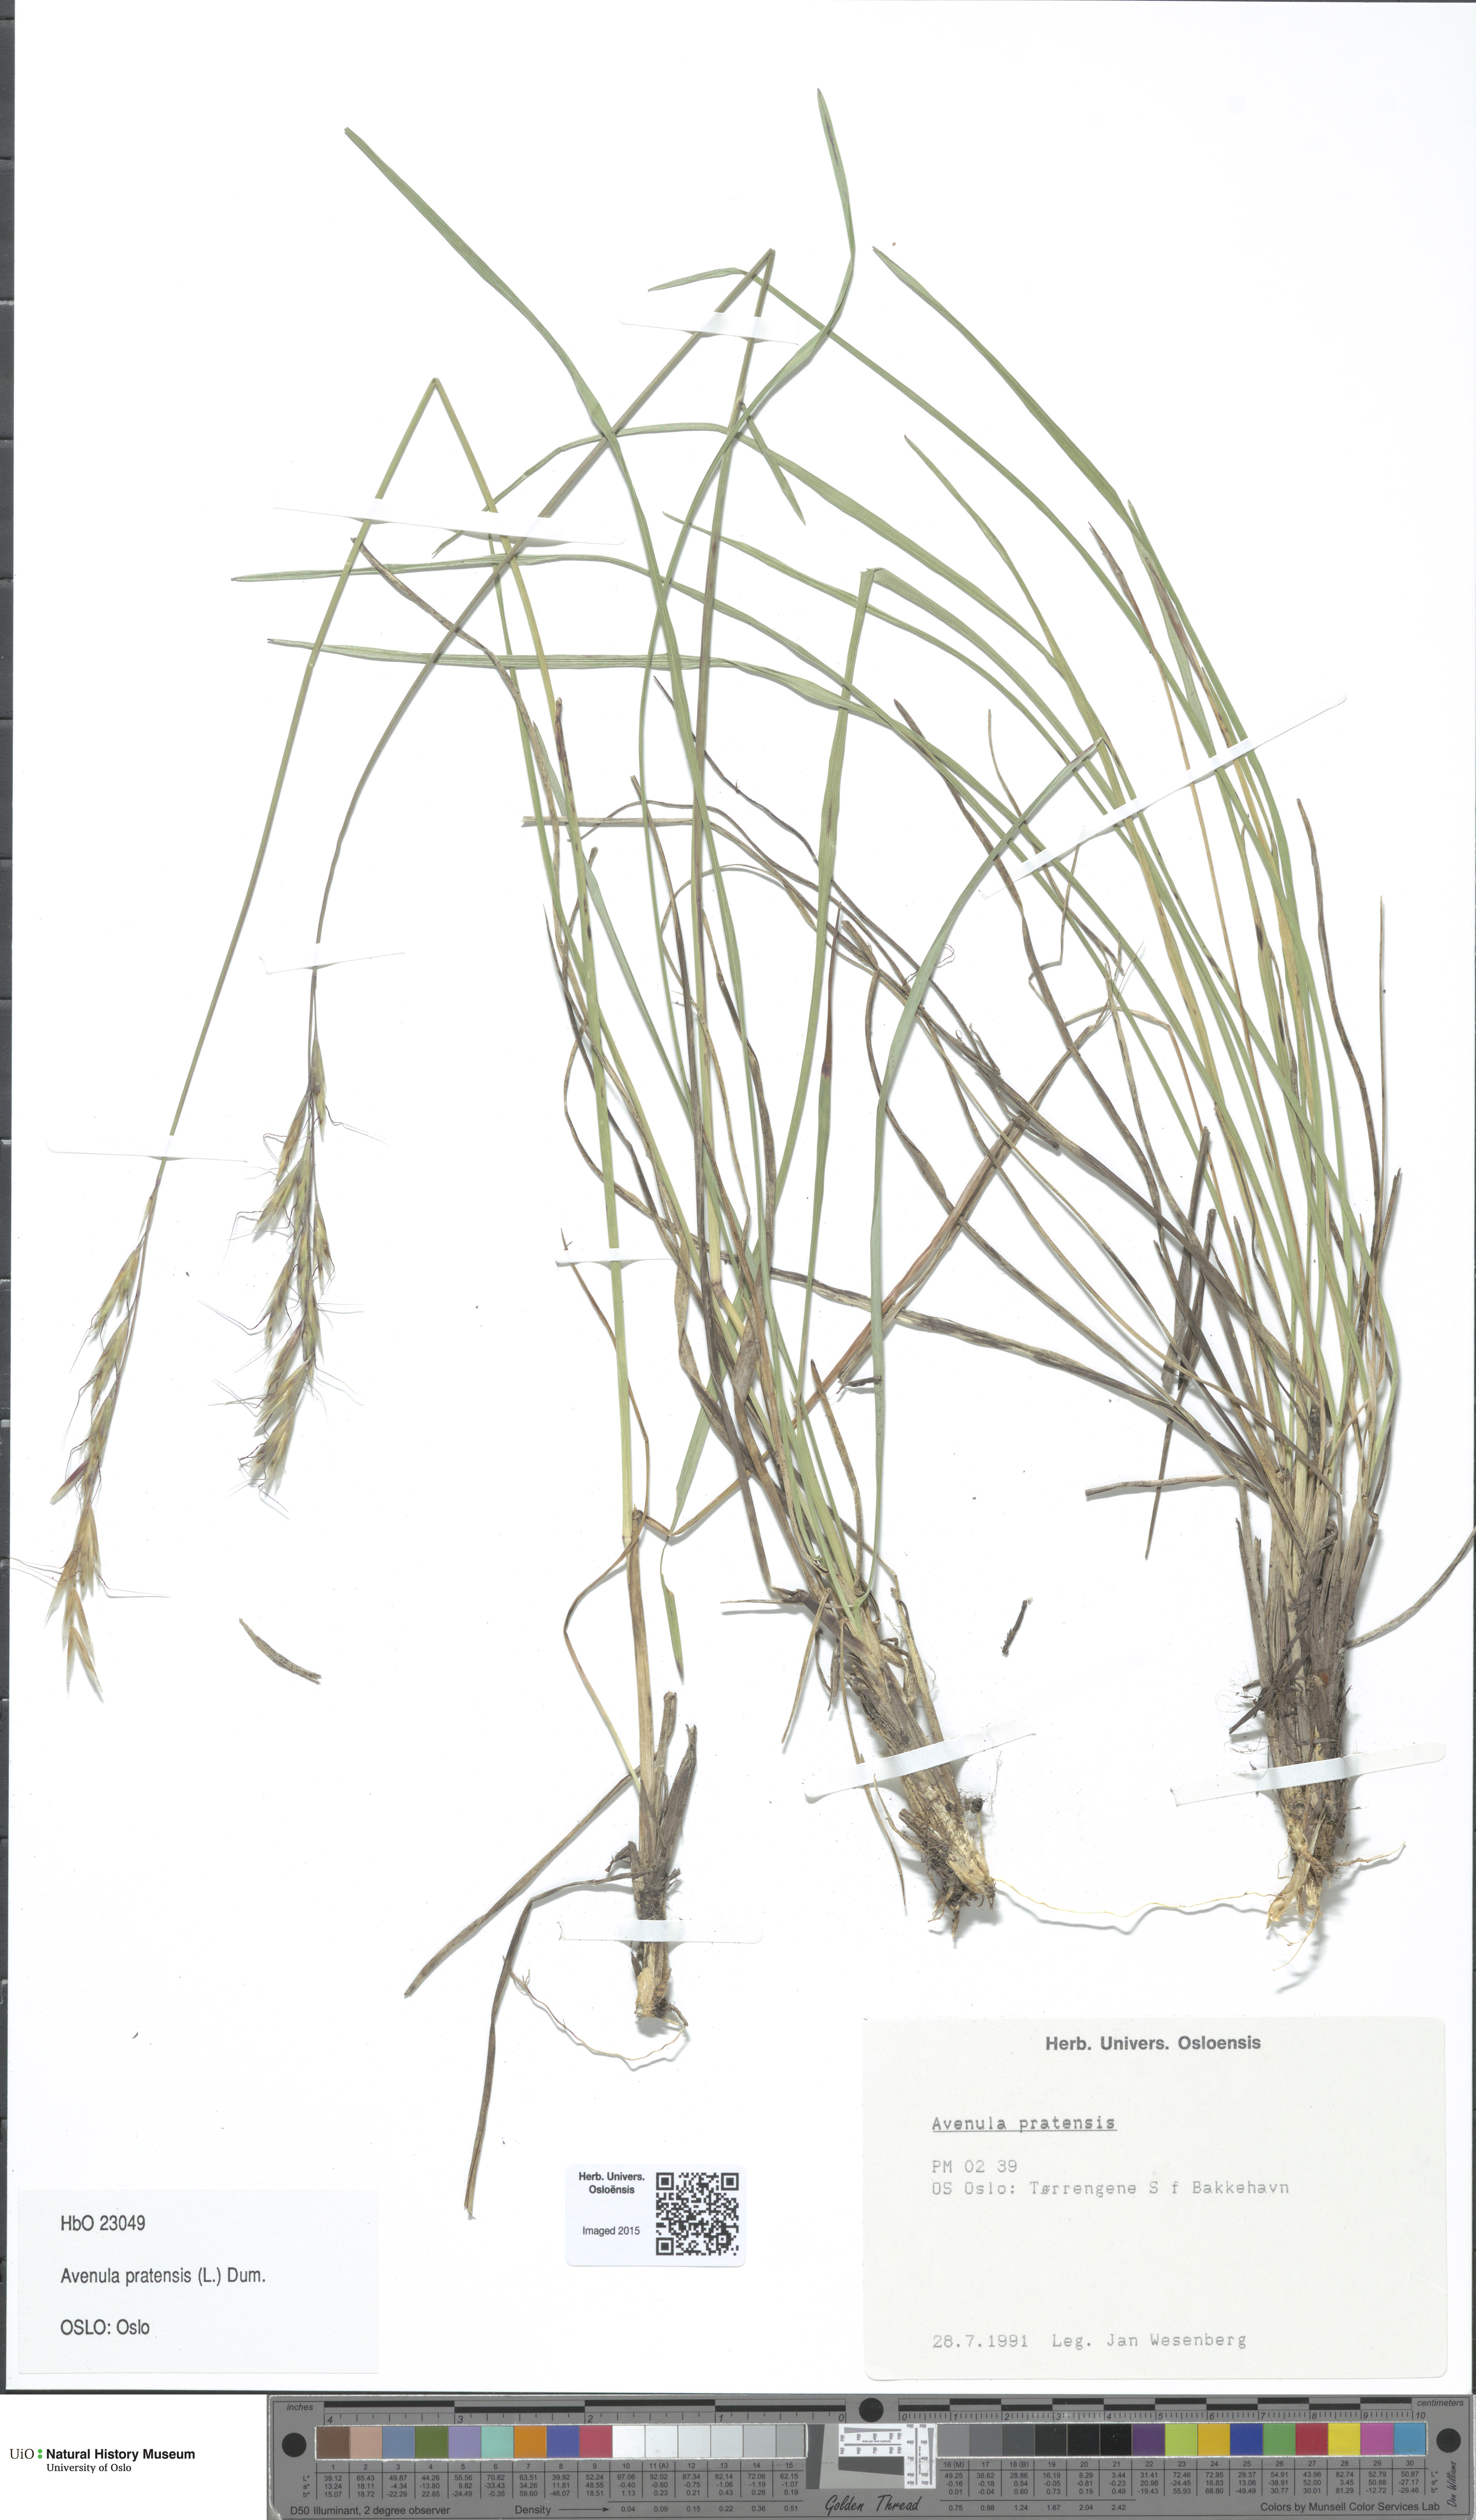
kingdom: Plantae
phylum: Tracheophyta
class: Liliopsida
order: Poales
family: Poaceae
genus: Helictochloa
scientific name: Helictochloa pratensis
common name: Meadow oat grass
